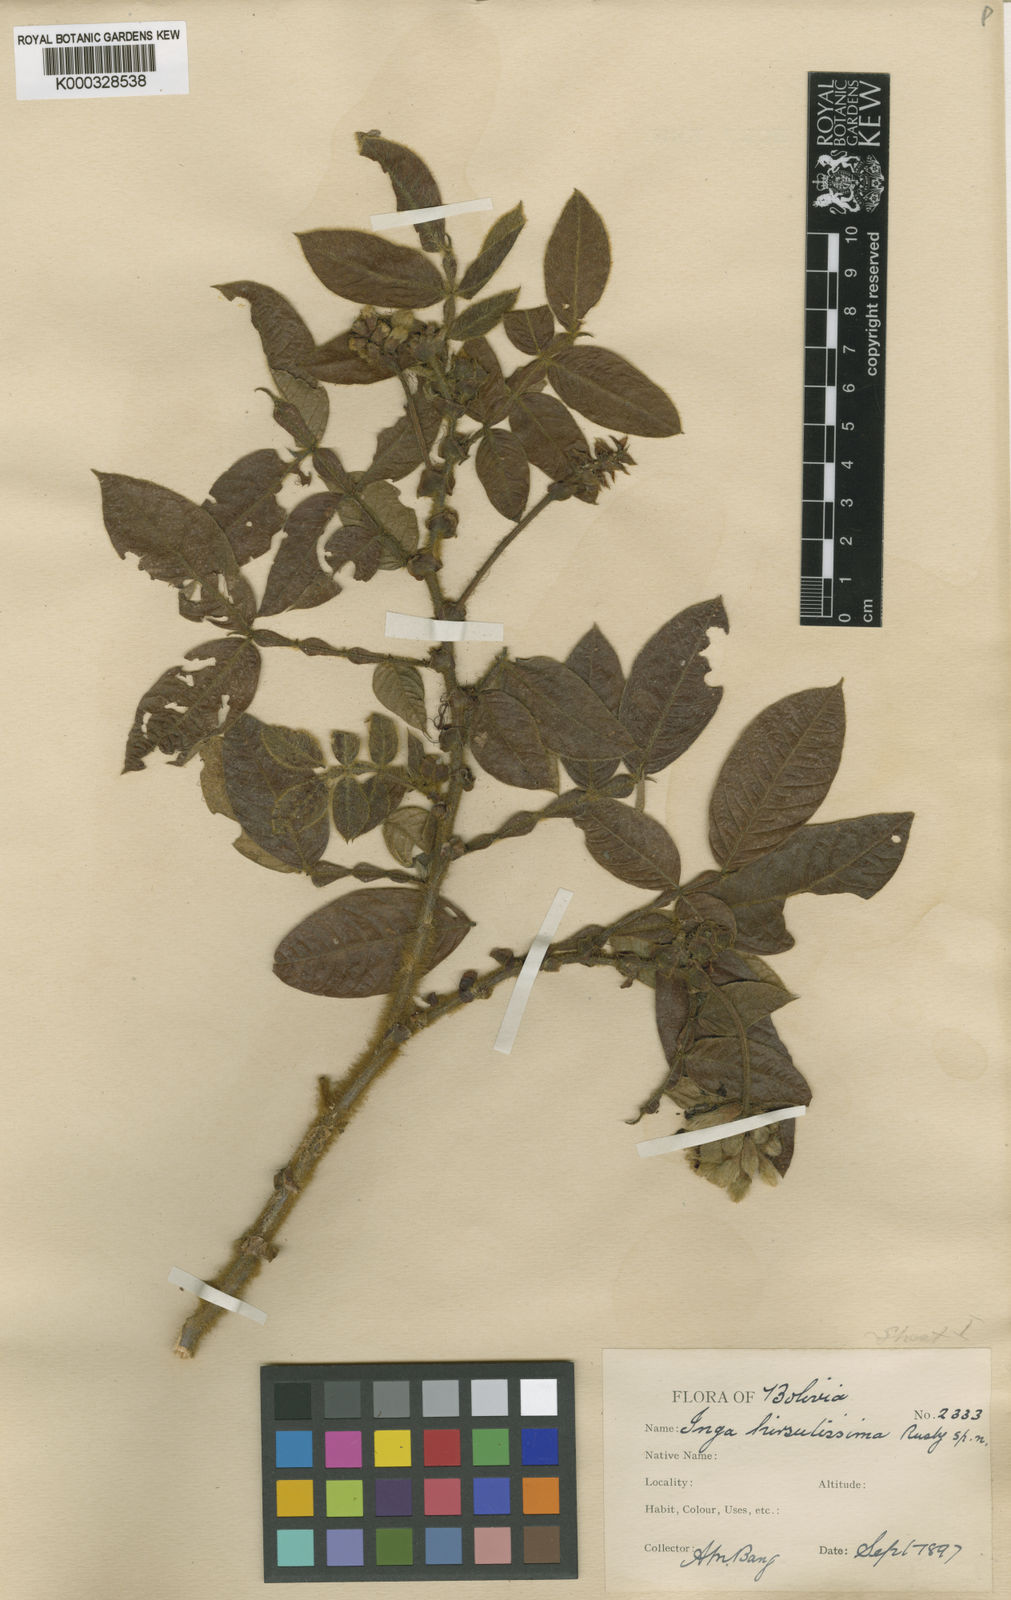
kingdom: Plantae
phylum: Tracheophyta
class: Magnoliopsida
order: Fabales
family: Fabaceae
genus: Inga
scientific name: Inga setosa
